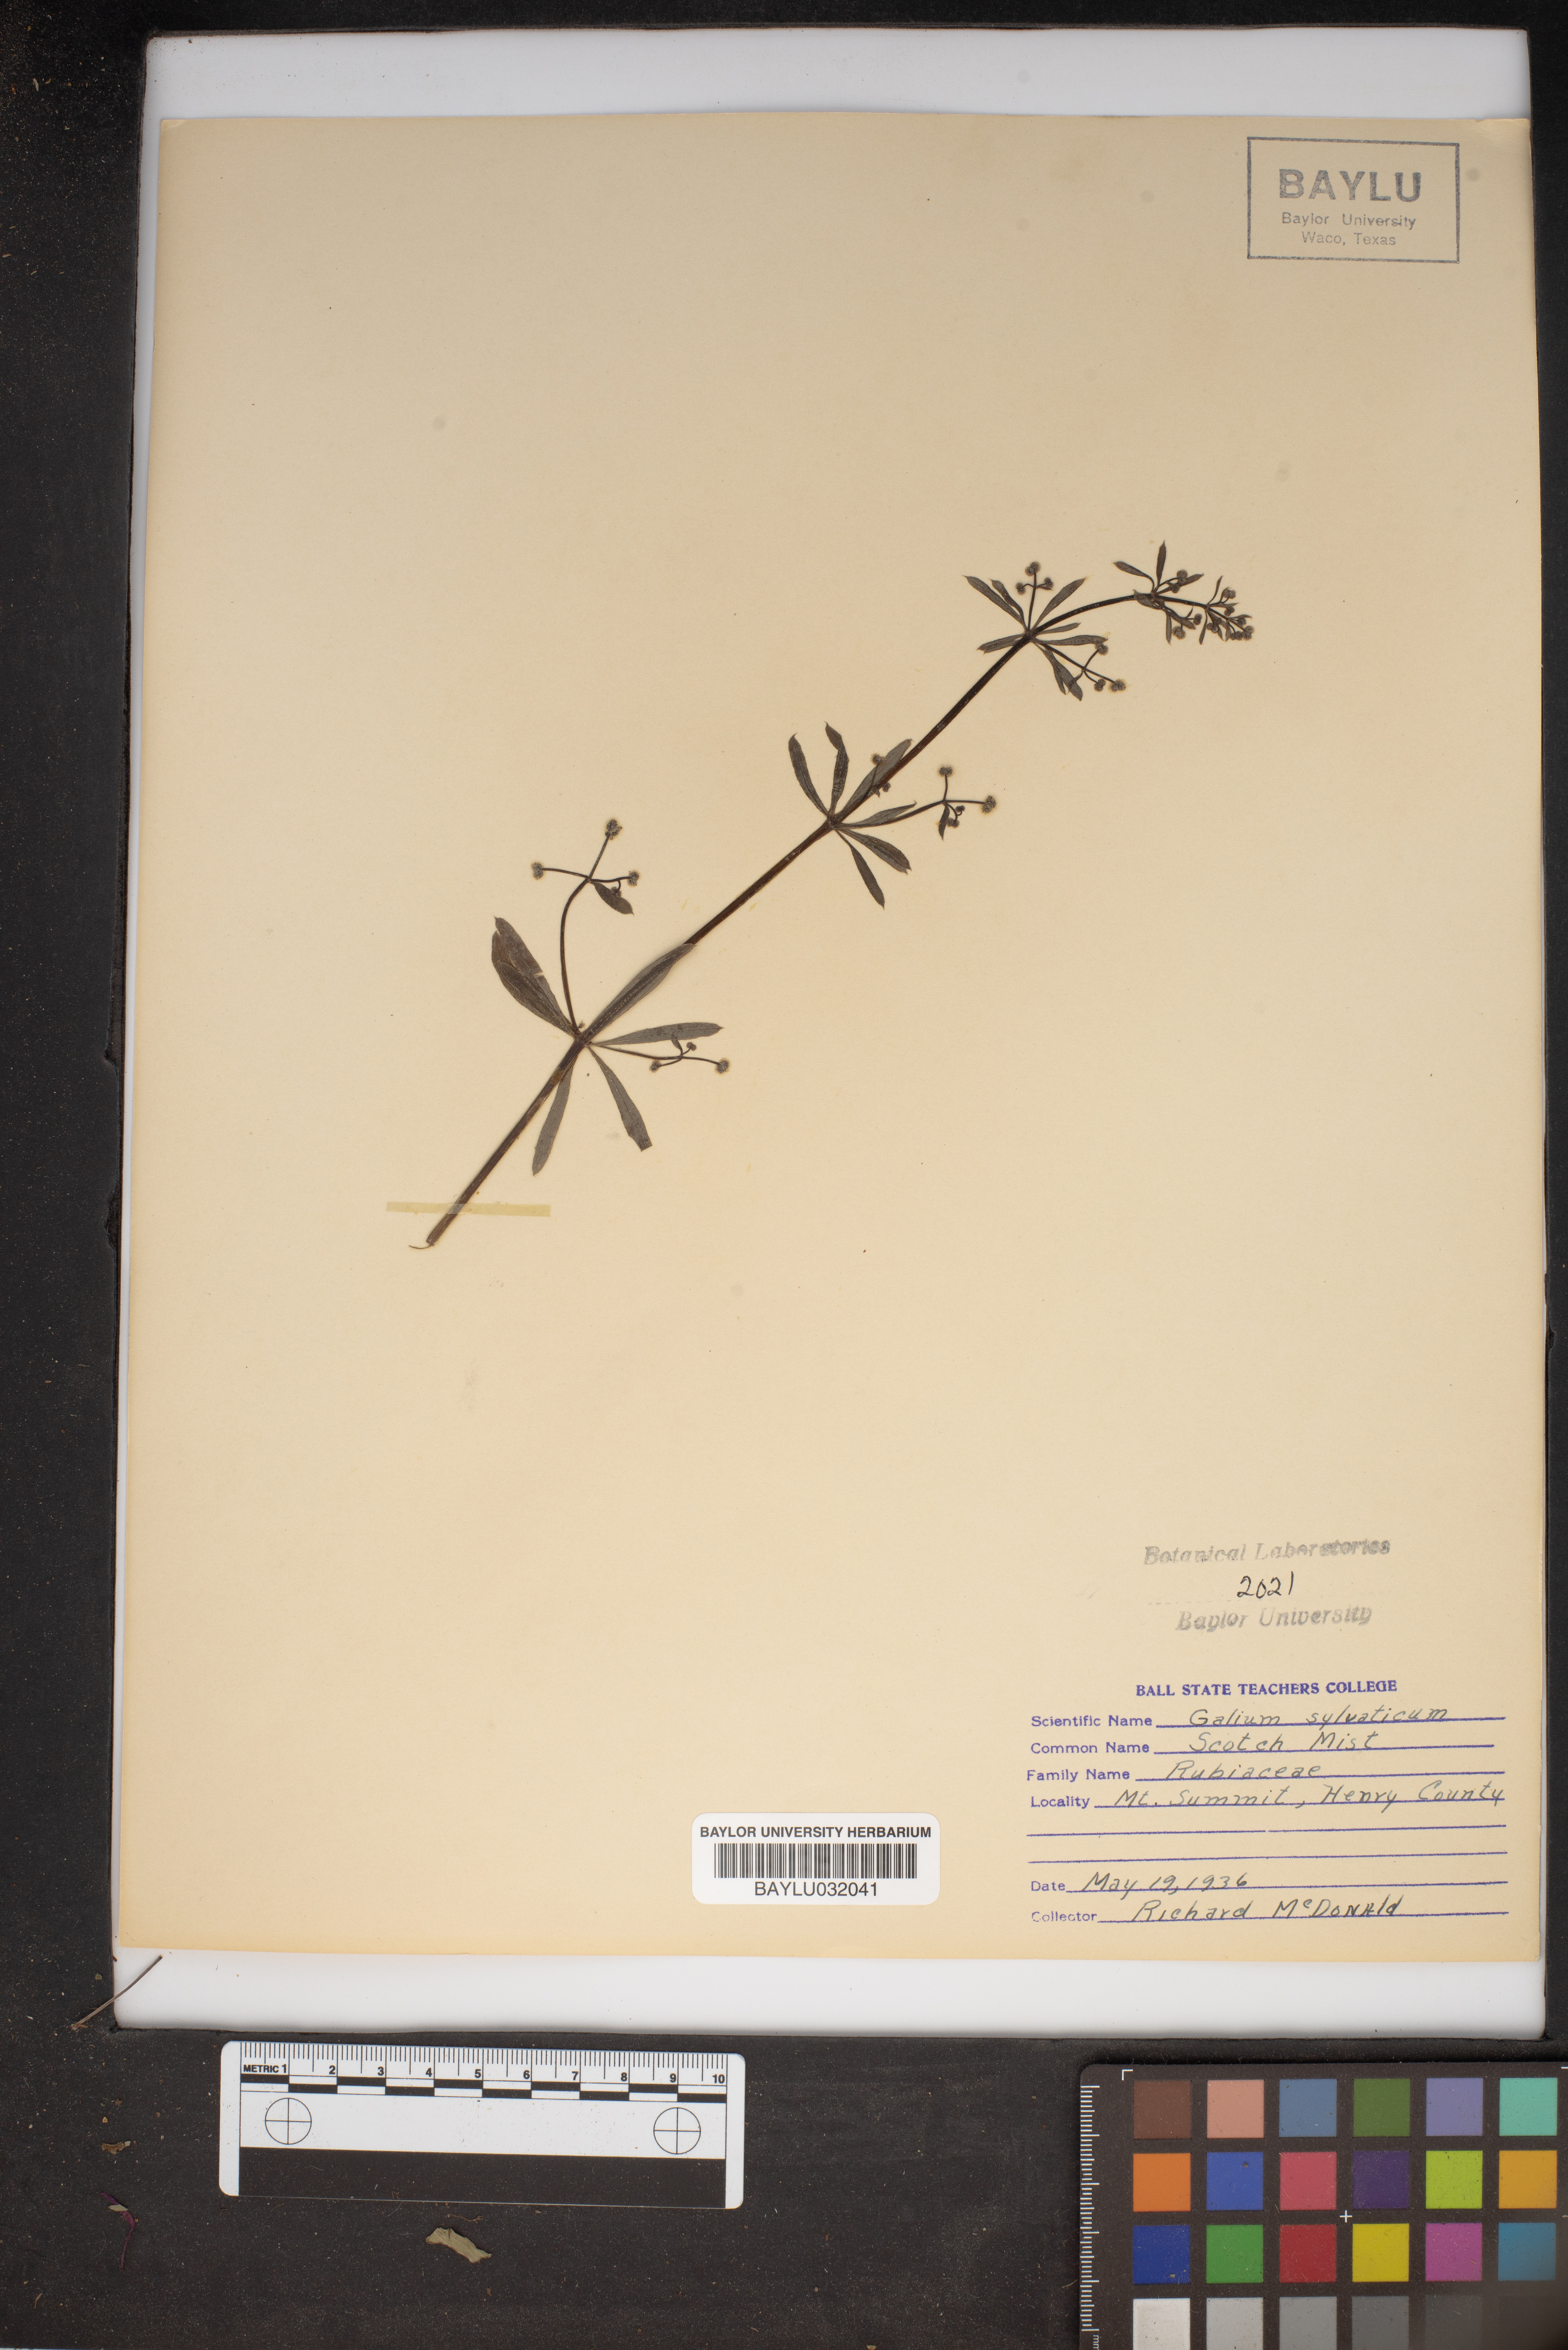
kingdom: Plantae
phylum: Tracheophyta
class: Magnoliopsida
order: Gentianales
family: Rubiaceae
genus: Galium
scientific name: Galium sylvaticum
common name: Wood bedstraw
